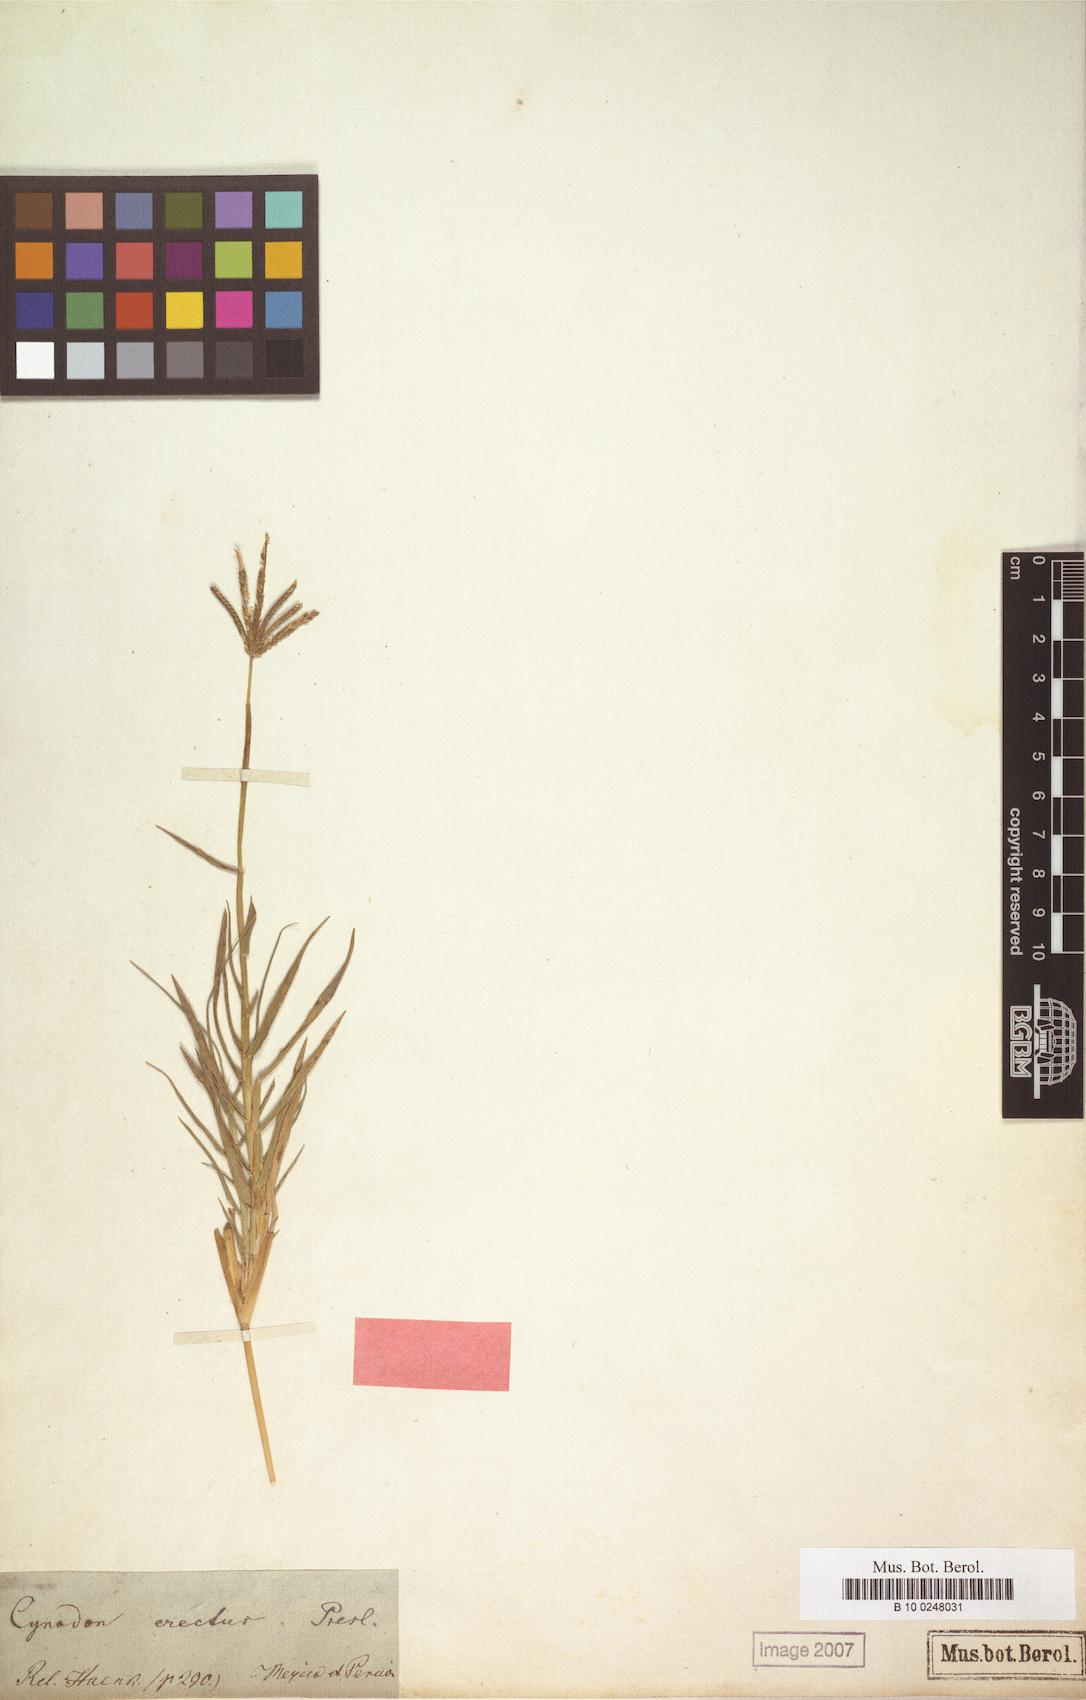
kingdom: Plantae
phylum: Tracheophyta
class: Liliopsida
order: Poales
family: Poaceae
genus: Cynodon
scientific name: Cynodon dactylon
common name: Bermuda grass
